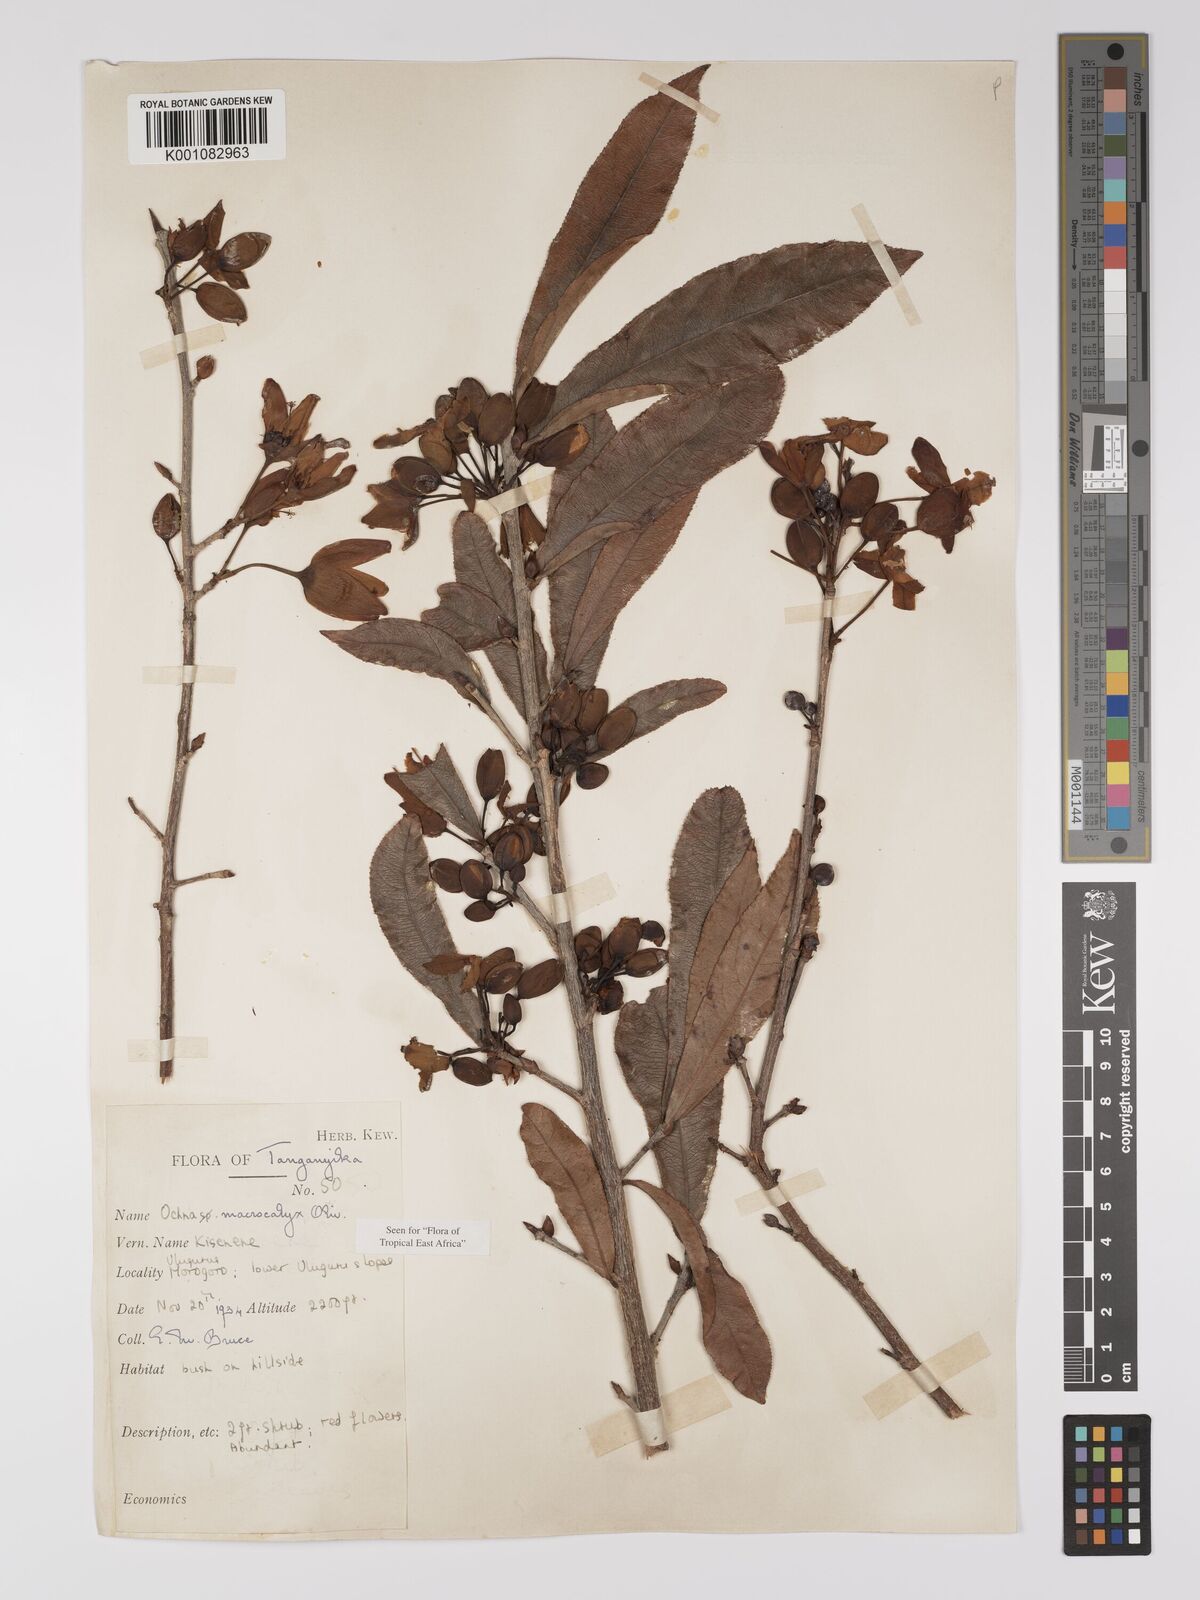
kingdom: Plantae
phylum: Tracheophyta
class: Magnoliopsida
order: Malpighiales
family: Ochnaceae
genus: Ochna
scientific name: Ochna macrocalyx
